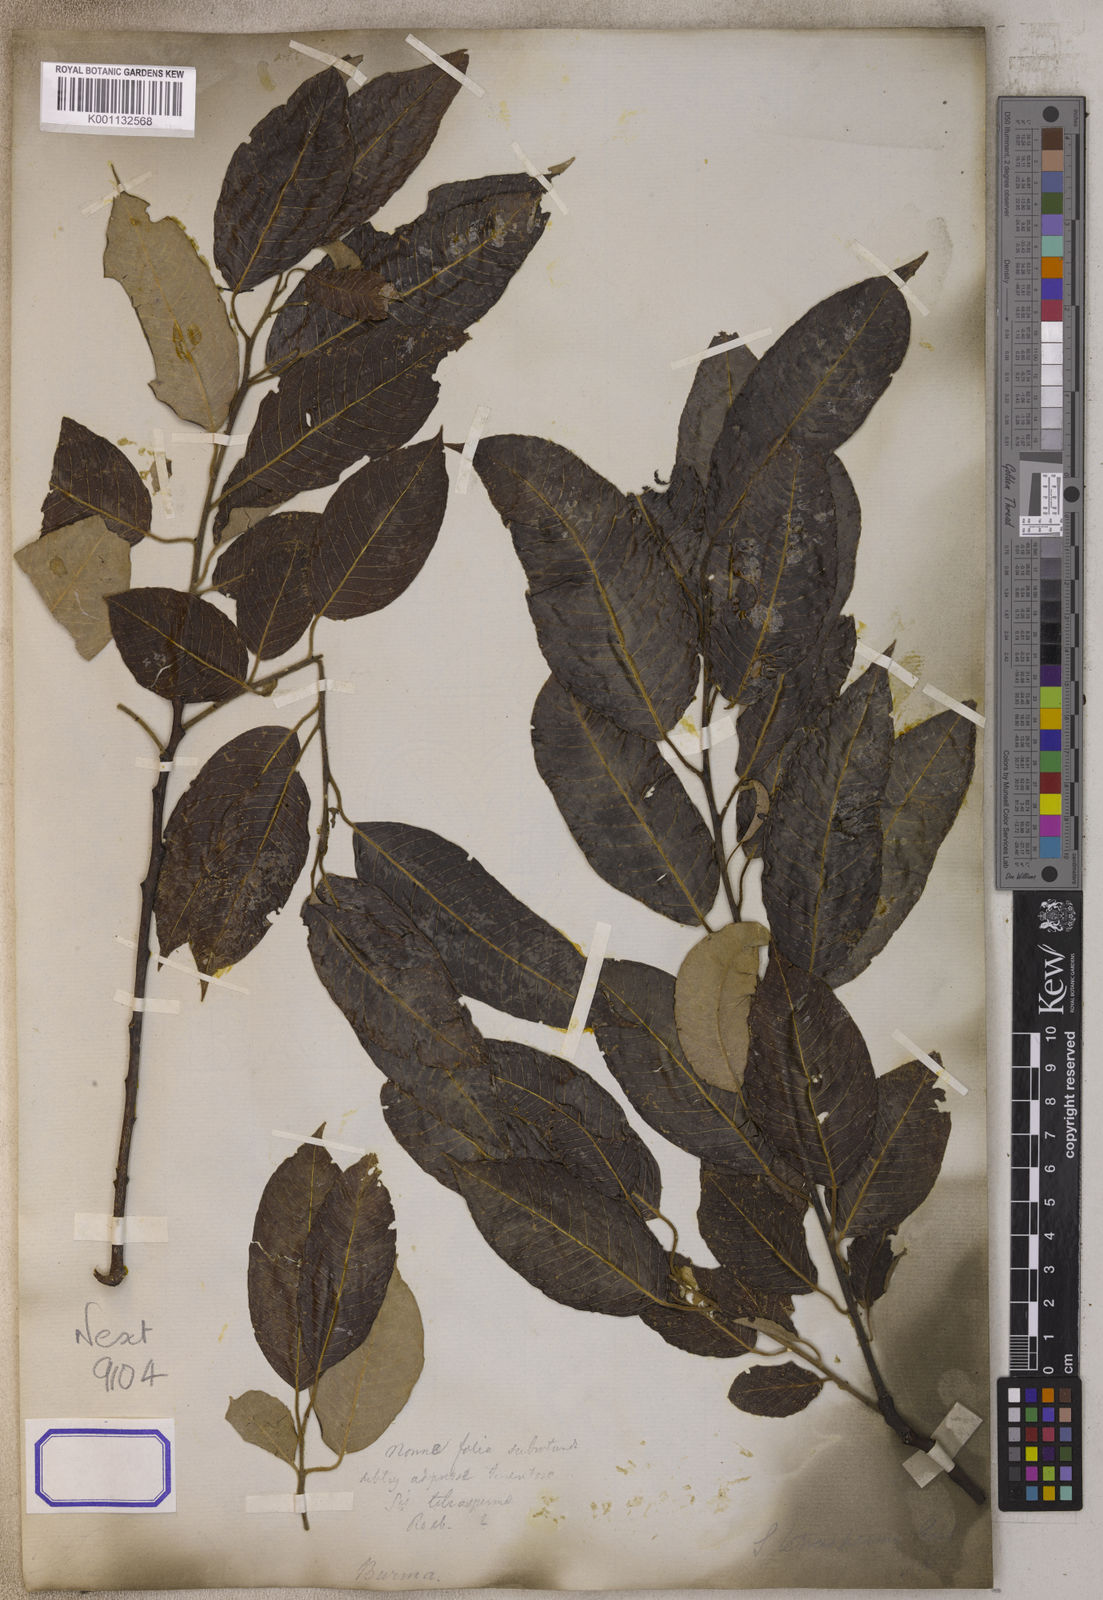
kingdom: Plantae
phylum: Tracheophyta
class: Magnoliopsida
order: Malpighiales
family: Salicaceae
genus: Salix
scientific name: Salix tetrasperma
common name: Indian willow
